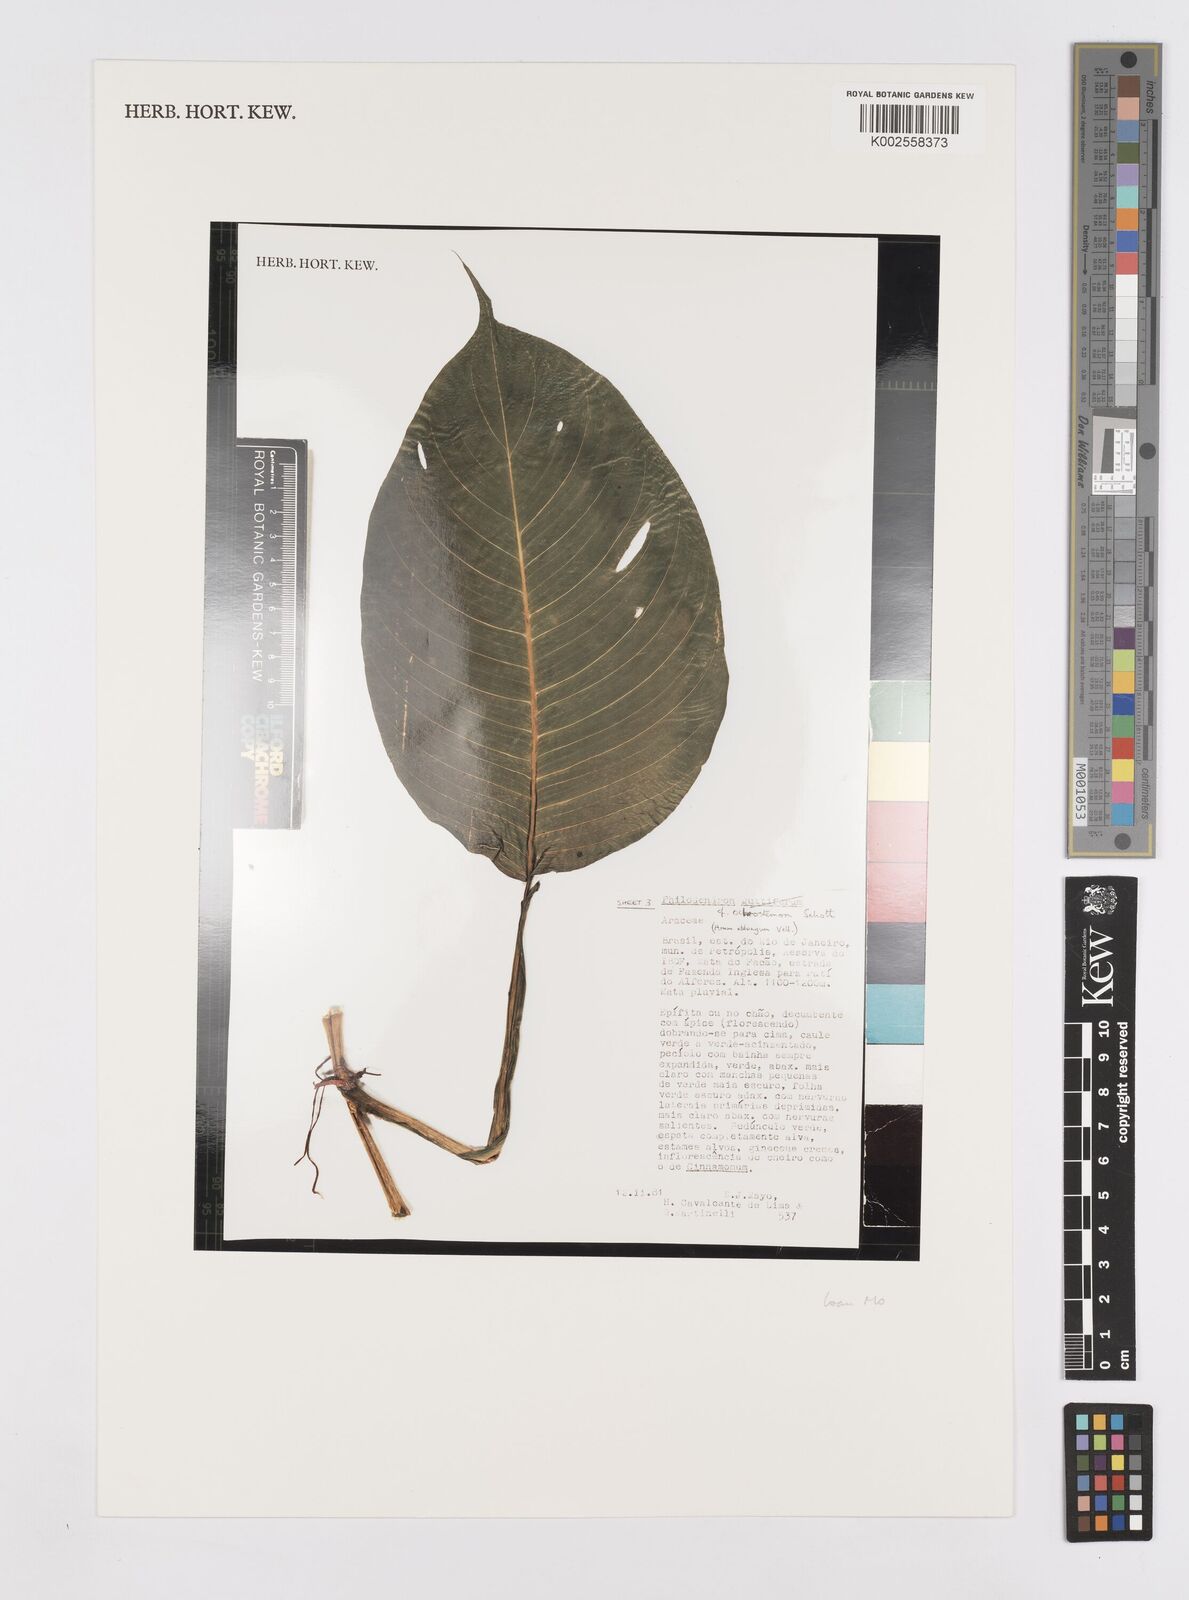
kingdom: Plantae
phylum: Tracheophyta
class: Liliopsida
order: Alismatales
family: Araceae
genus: Philodendron
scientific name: Philodendron ochrostemon
